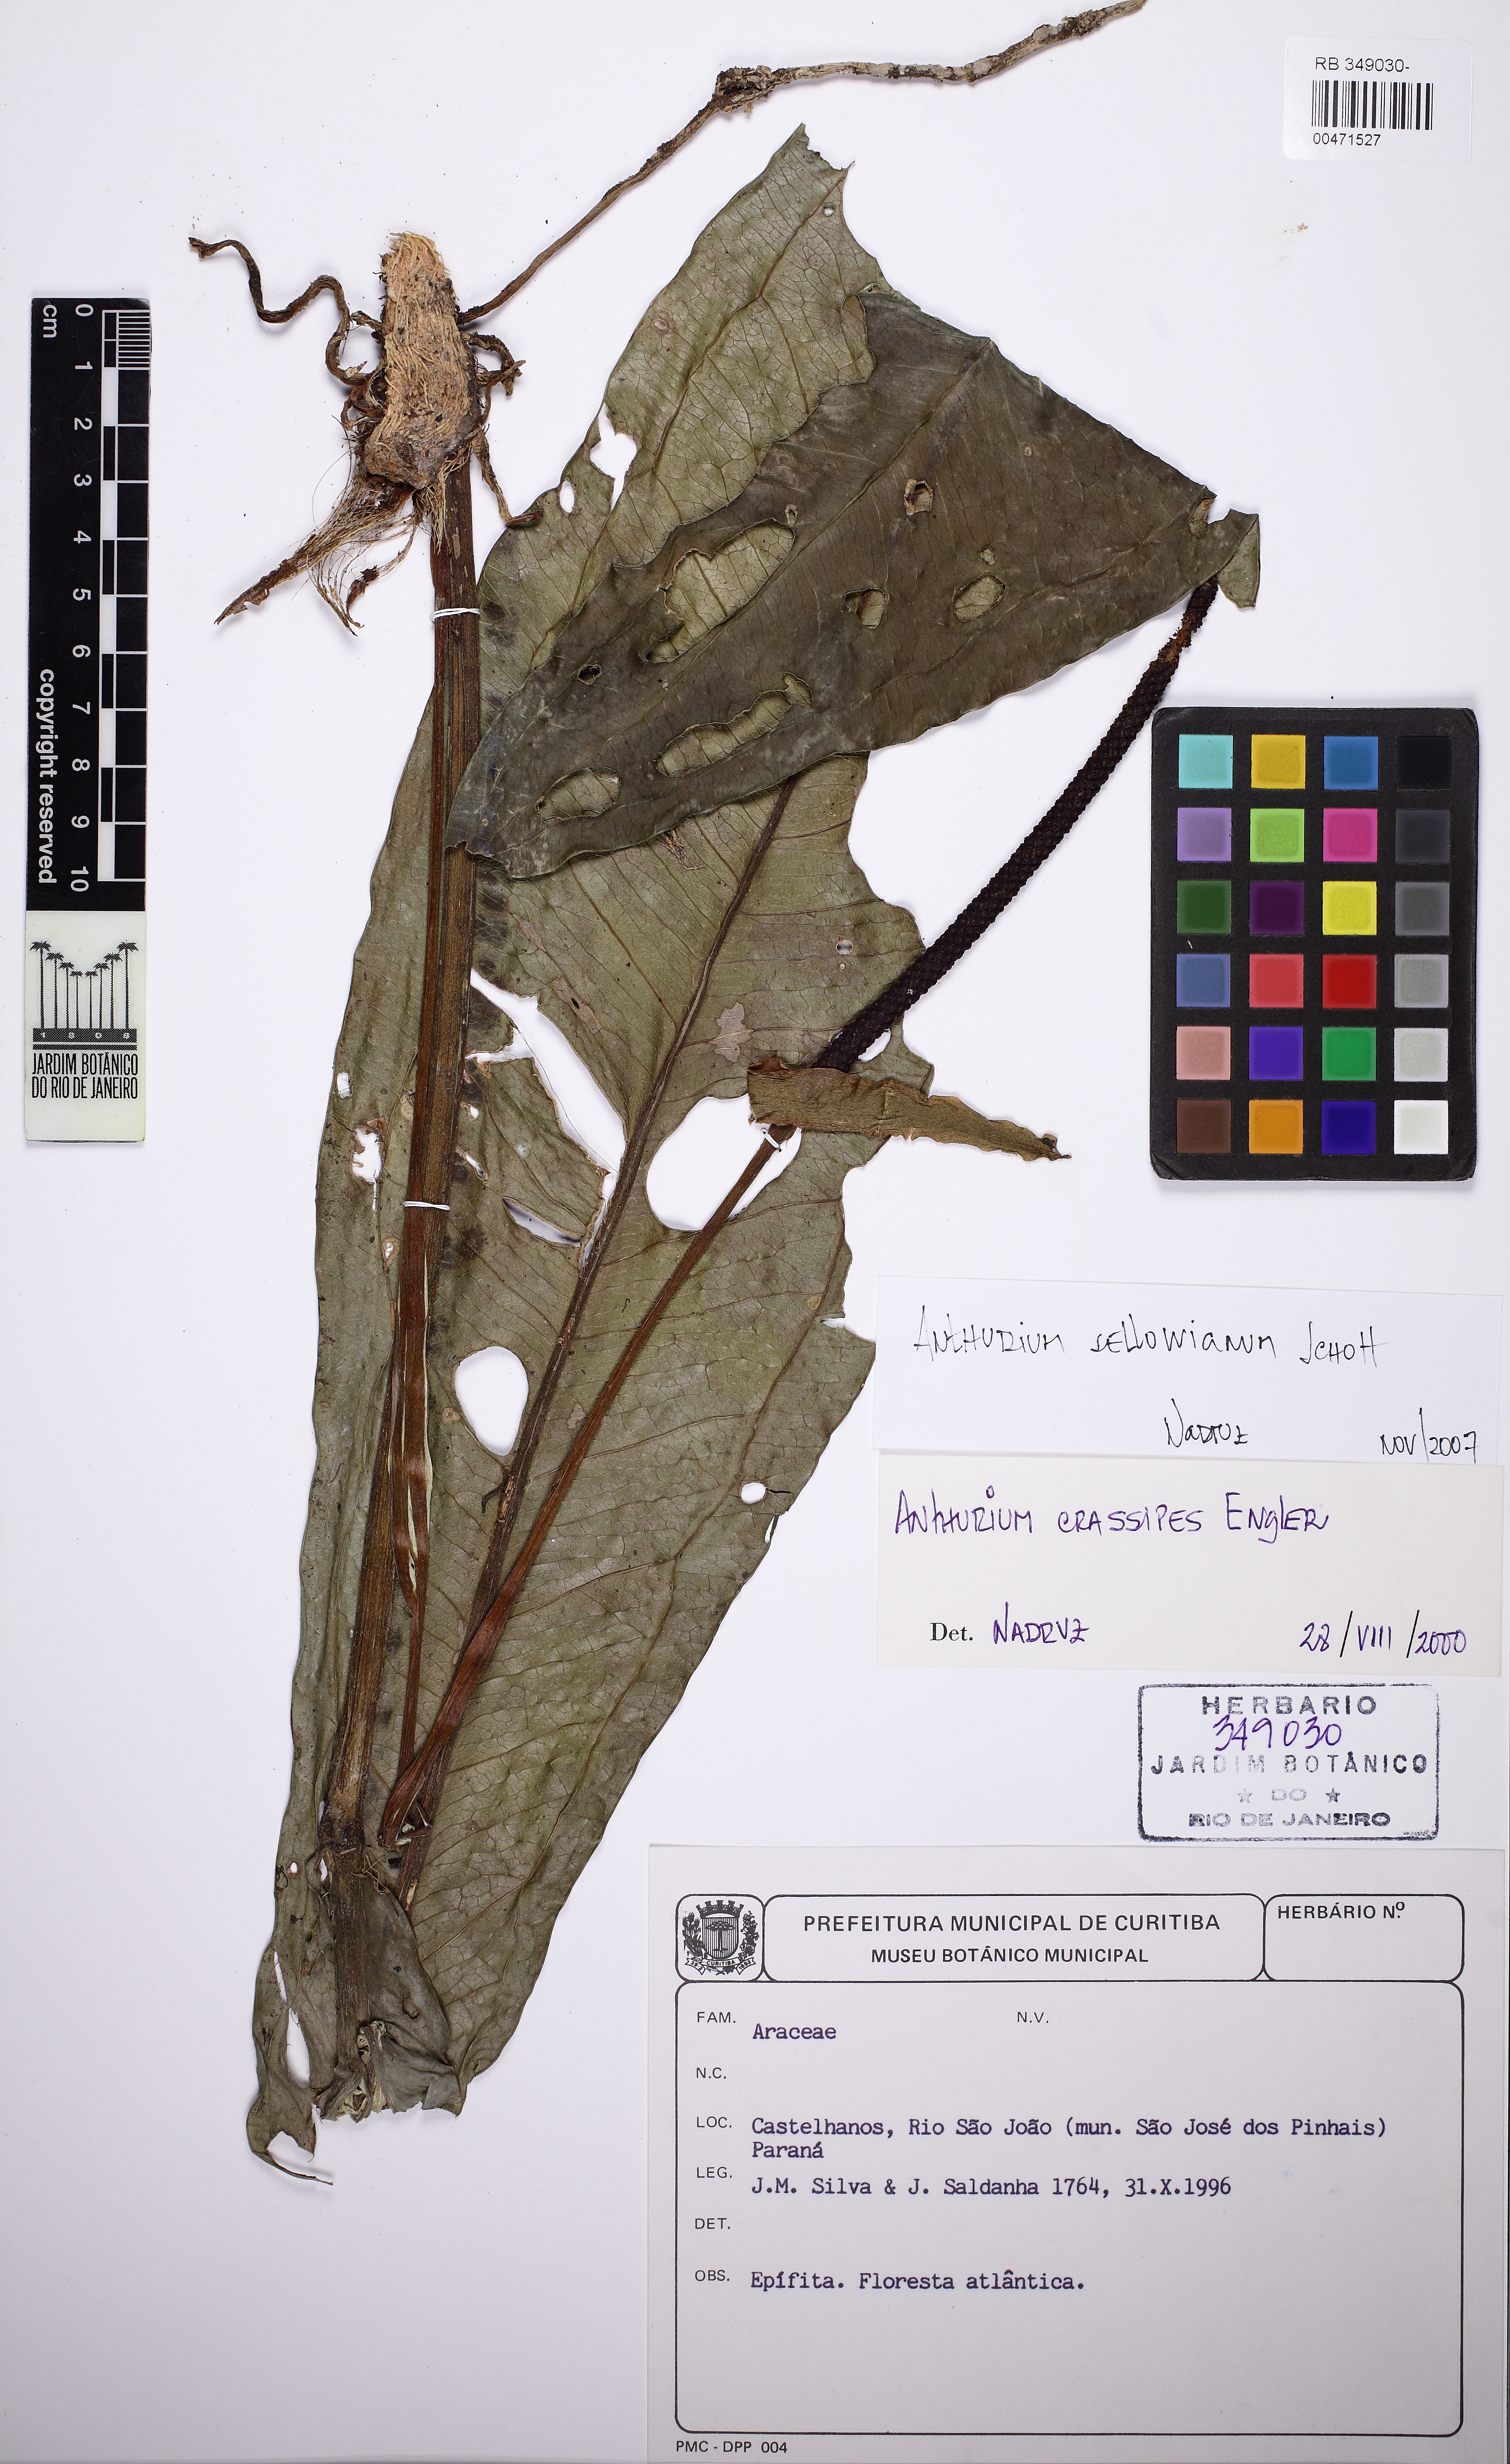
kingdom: Plantae
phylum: Tracheophyta
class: Liliopsida
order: Alismatales
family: Araceae
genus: Anthurium
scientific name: Anthurium sellowianum
